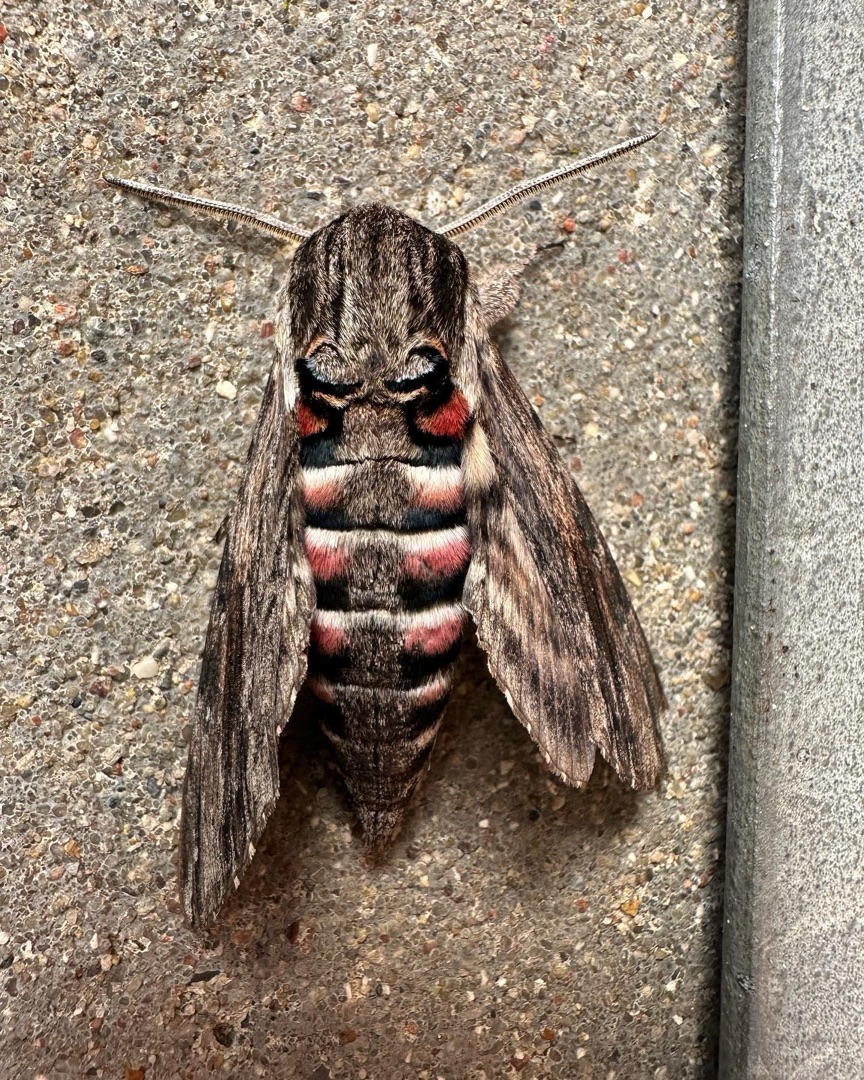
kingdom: Animalia
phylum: Arthropoda
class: Insecta
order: Lepidoptera
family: Sphingidae
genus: Agrius
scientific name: Agrius convolvuli
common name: Snerlesværmer
